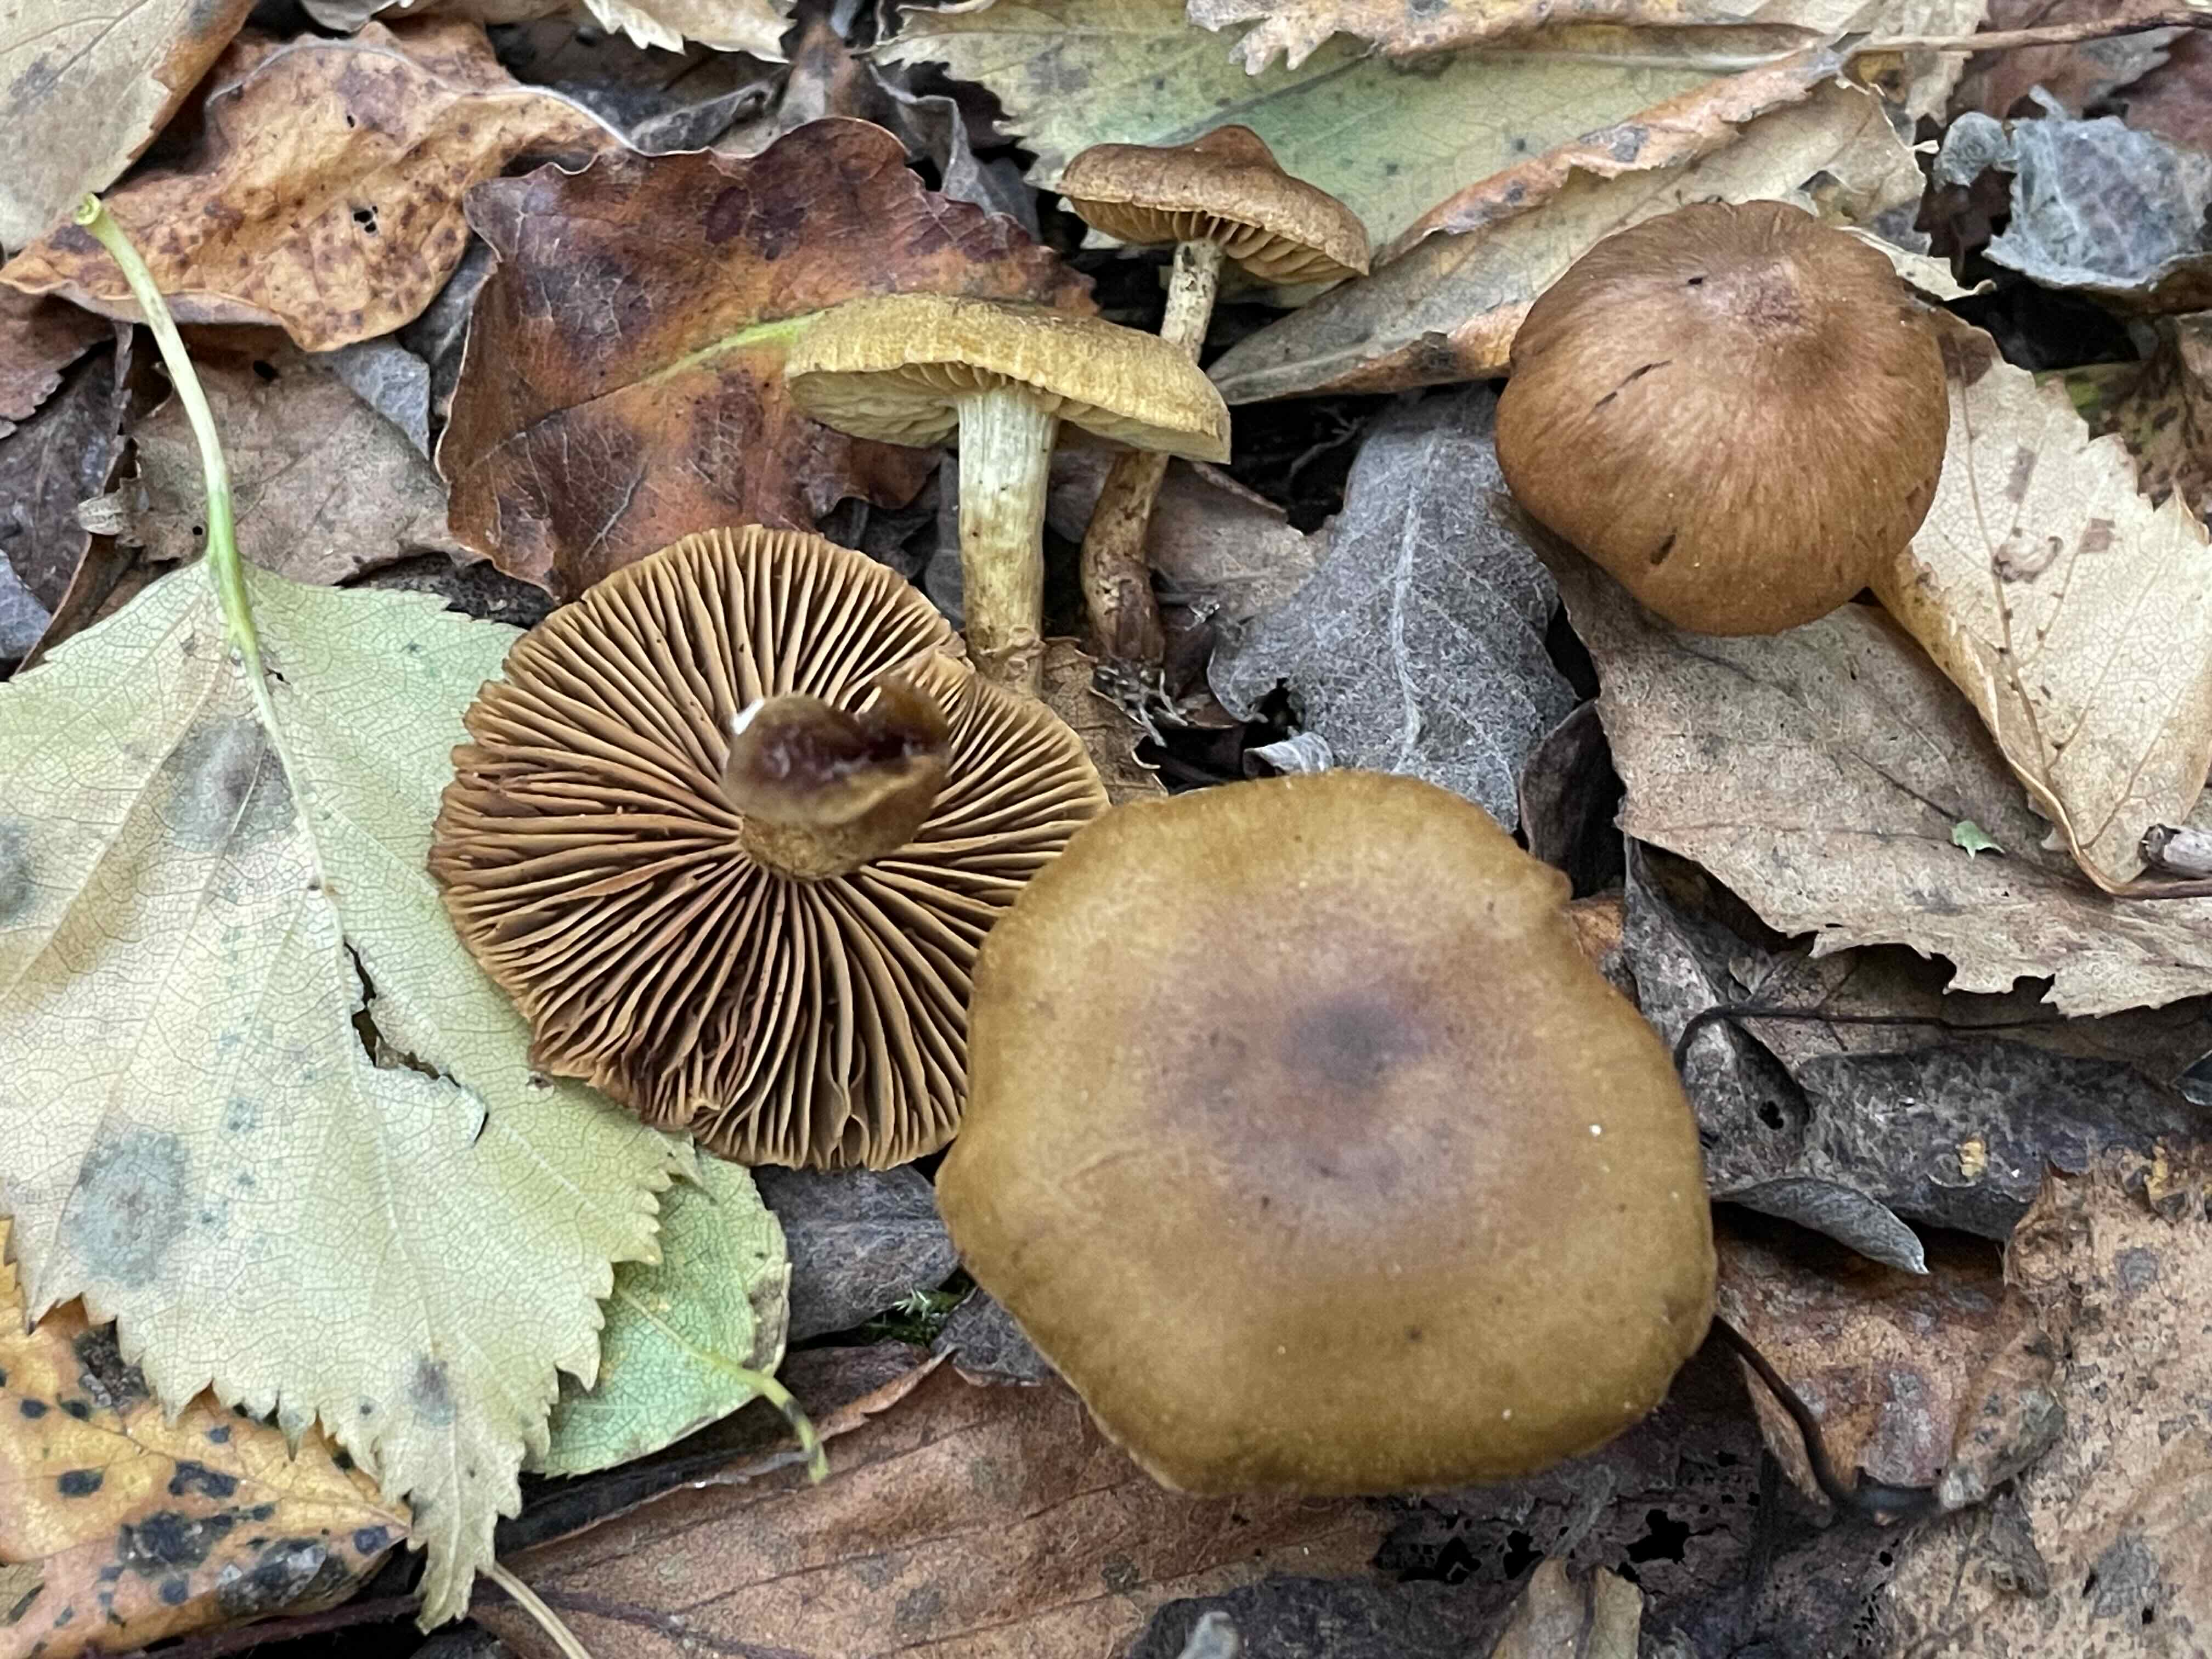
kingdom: Fungi
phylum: Basidiomycota
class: Agaricomycetes
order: Agaricales
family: Cortinariaceae
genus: Cortinarius
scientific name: Cortinarius olivaceofuscus
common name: olivenbrun slørhat
